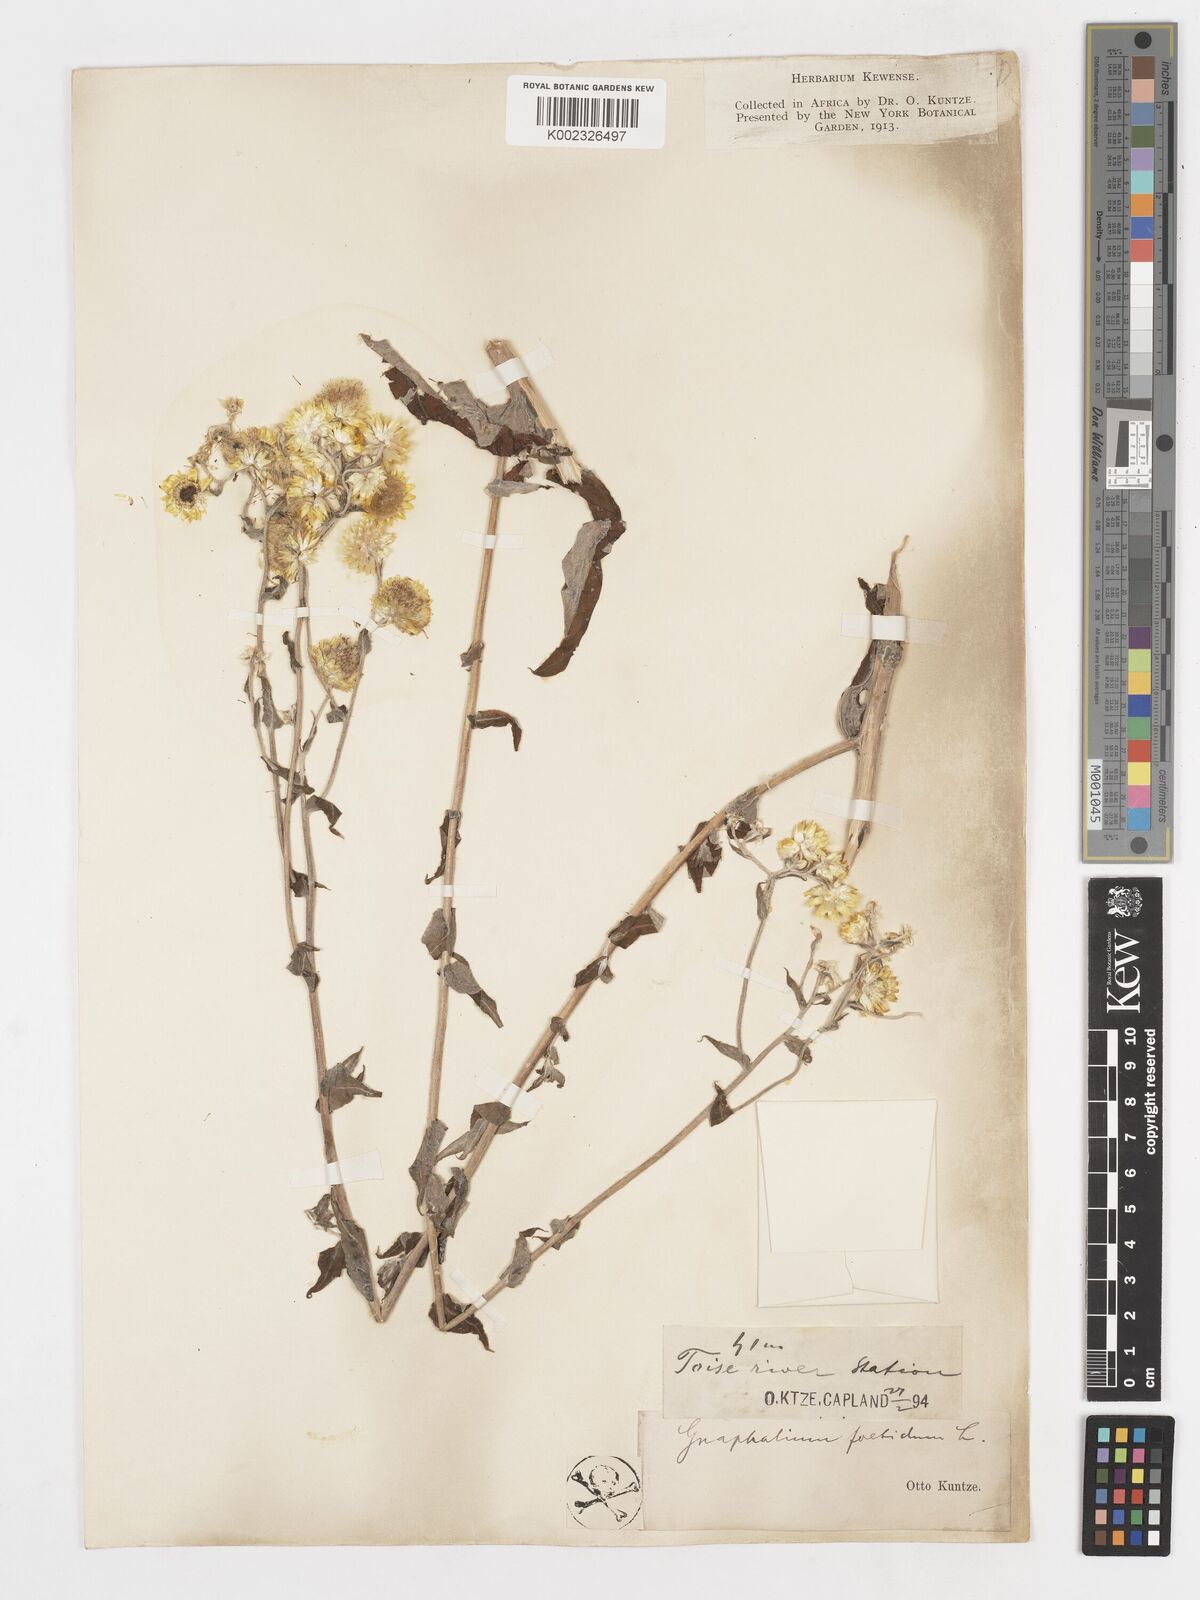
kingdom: Plantae
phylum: Tracheophyta
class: Magnoliopsida
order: Asterales
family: Asteraceae
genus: Helichrysum
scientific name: Helichrysum foetidum
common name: Stinking everlasting
